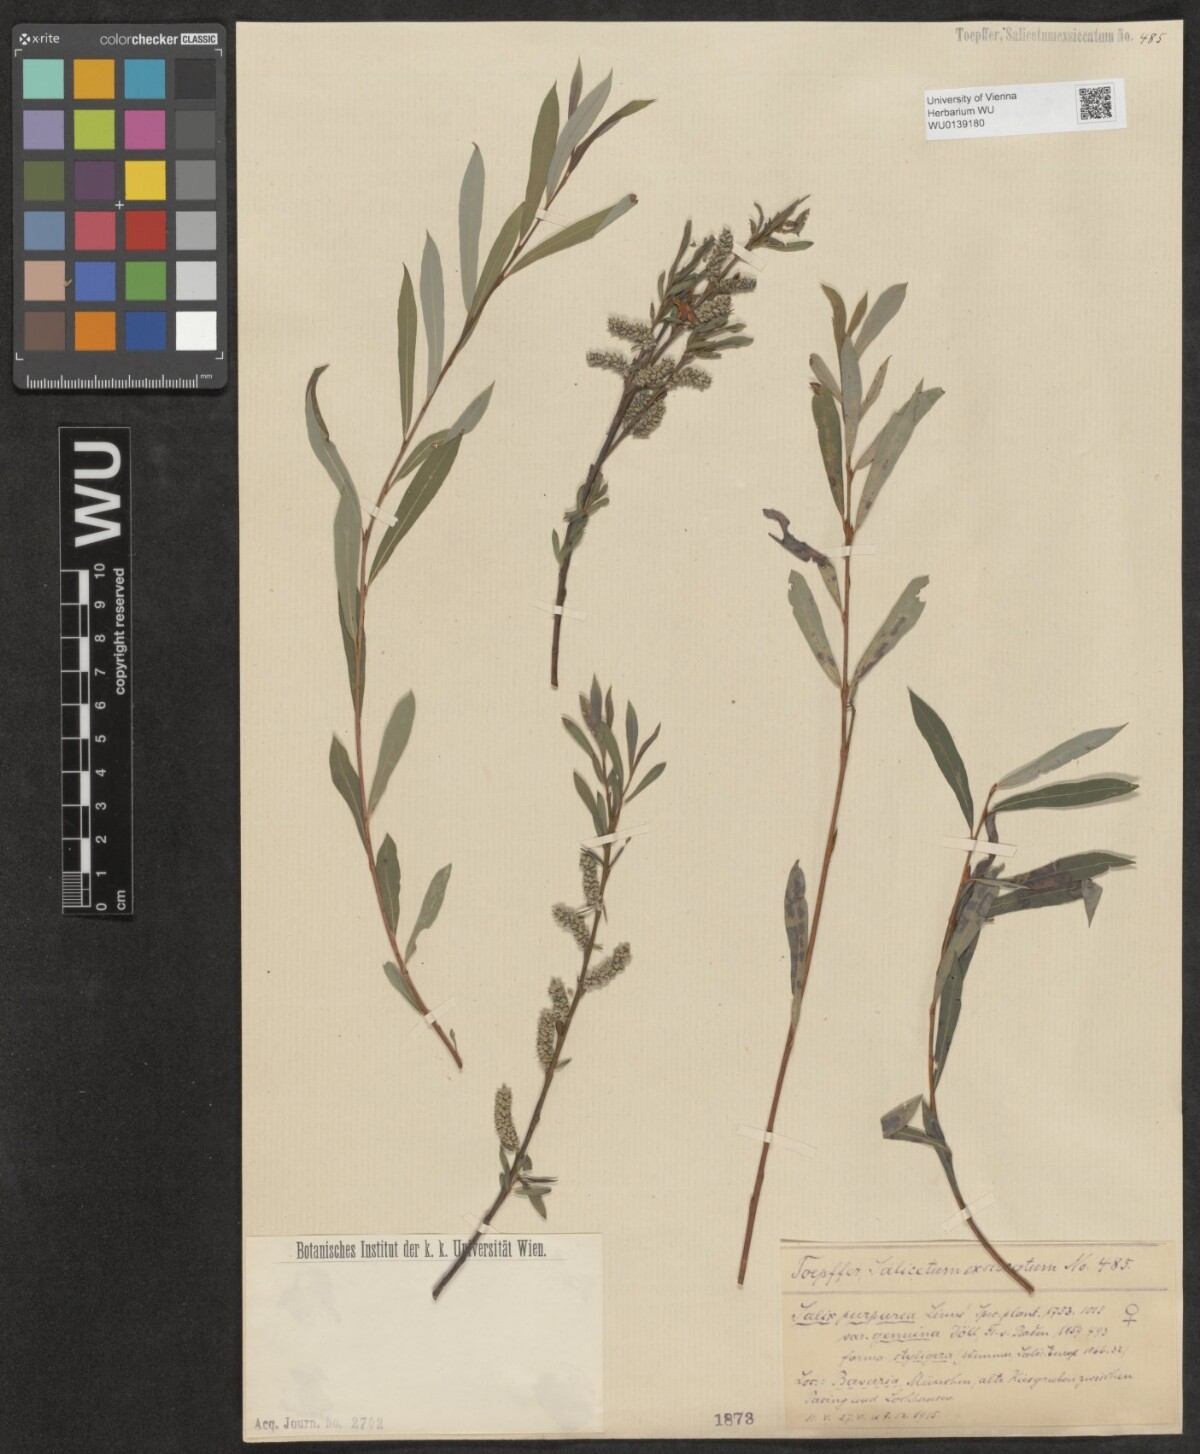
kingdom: Plantae
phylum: Tracheophyta
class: Magnoliopsida
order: Malpighiales
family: Salicaceae
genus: Salix
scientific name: Salix purpurea
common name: Purple willow
